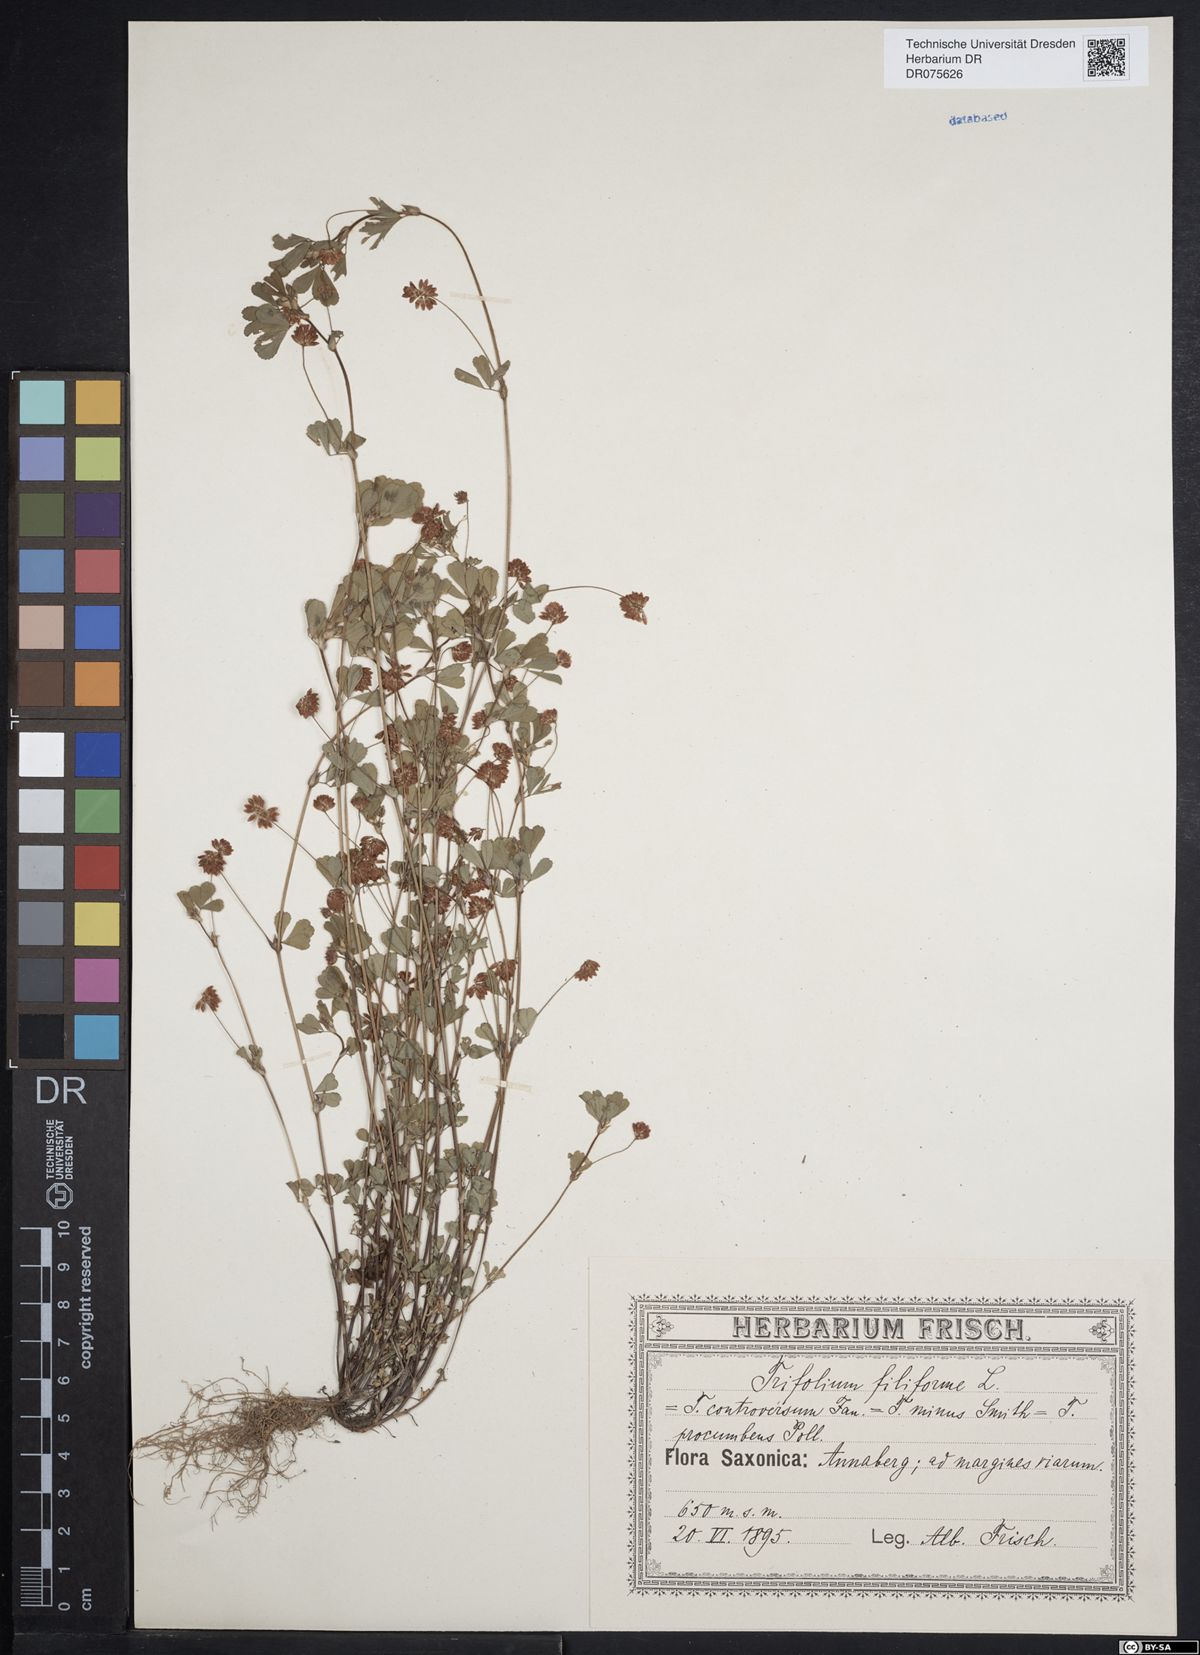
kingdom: Plantae
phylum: Tracheophyta
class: Magnoliopsida
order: Fabales
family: Fabaceae
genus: Trifolium
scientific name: Trifolium dubium
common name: Suckling clover
